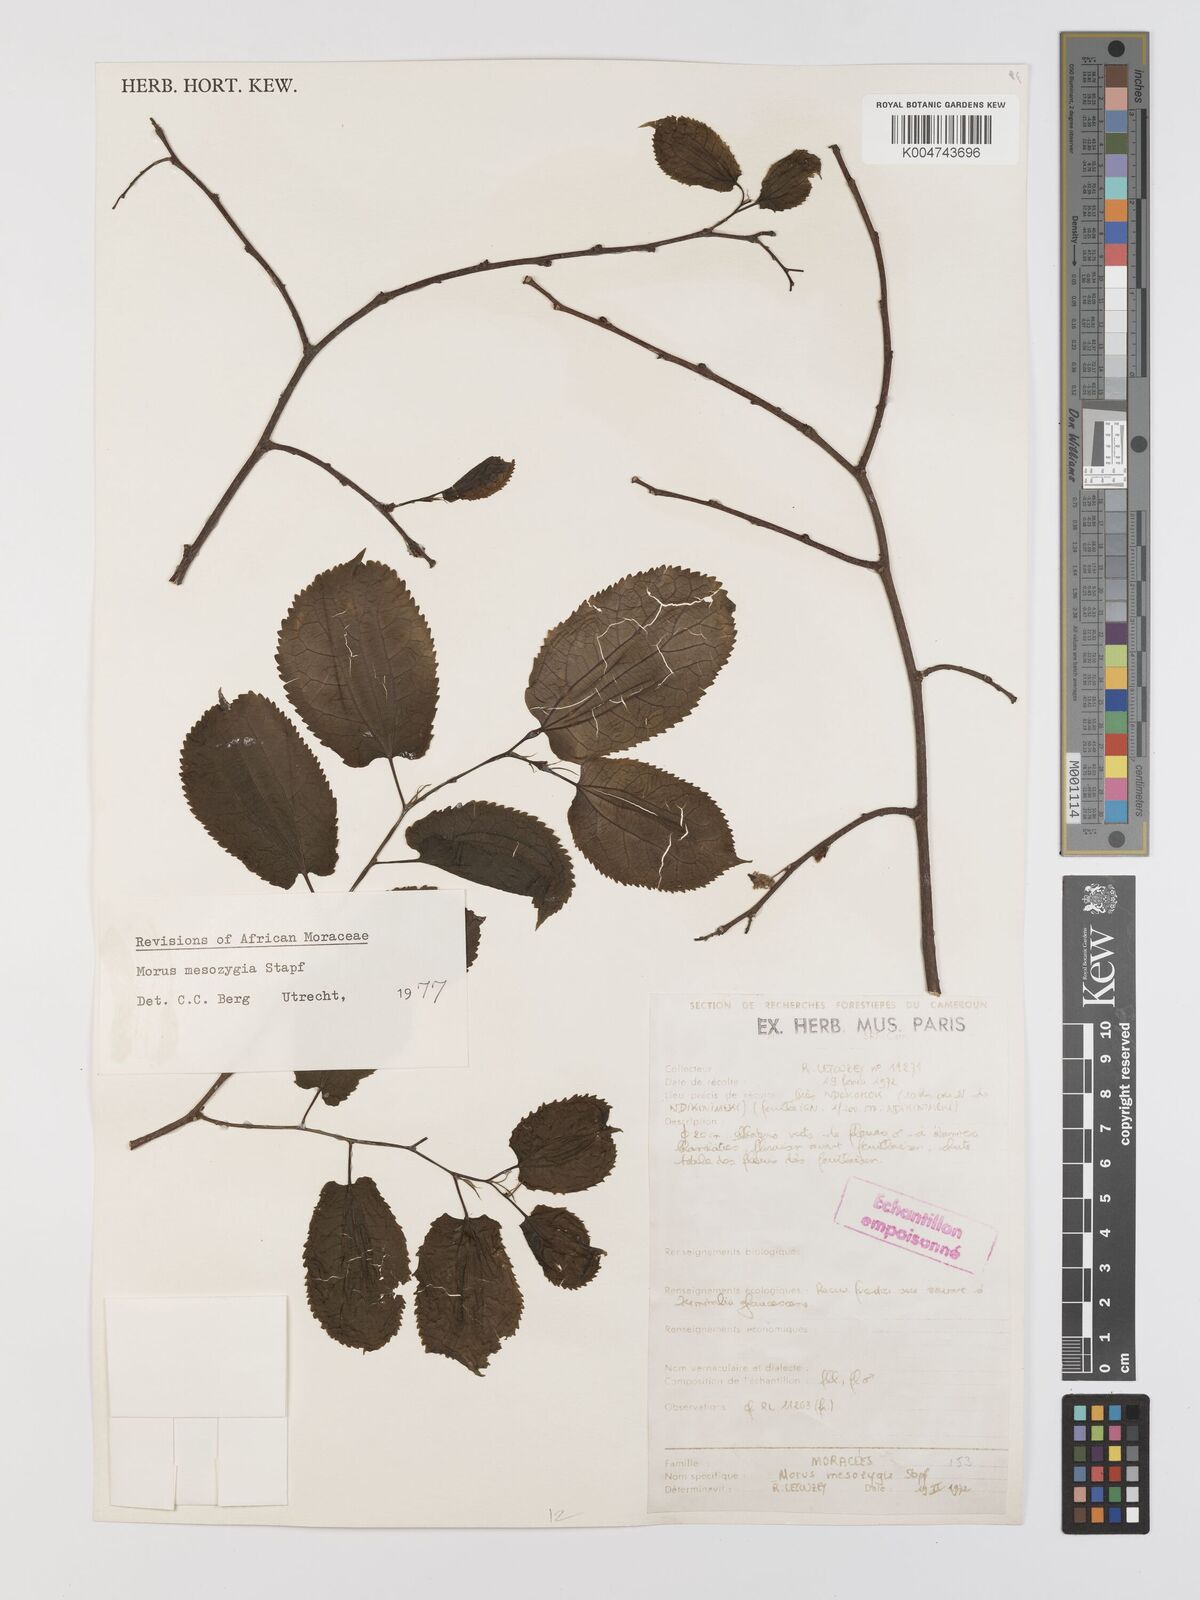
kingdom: Plantae
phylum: Tracheophyta
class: Magnoliopsida
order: Rosales
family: Moraceae
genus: Afromorus
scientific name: Afromorus mesozygia
